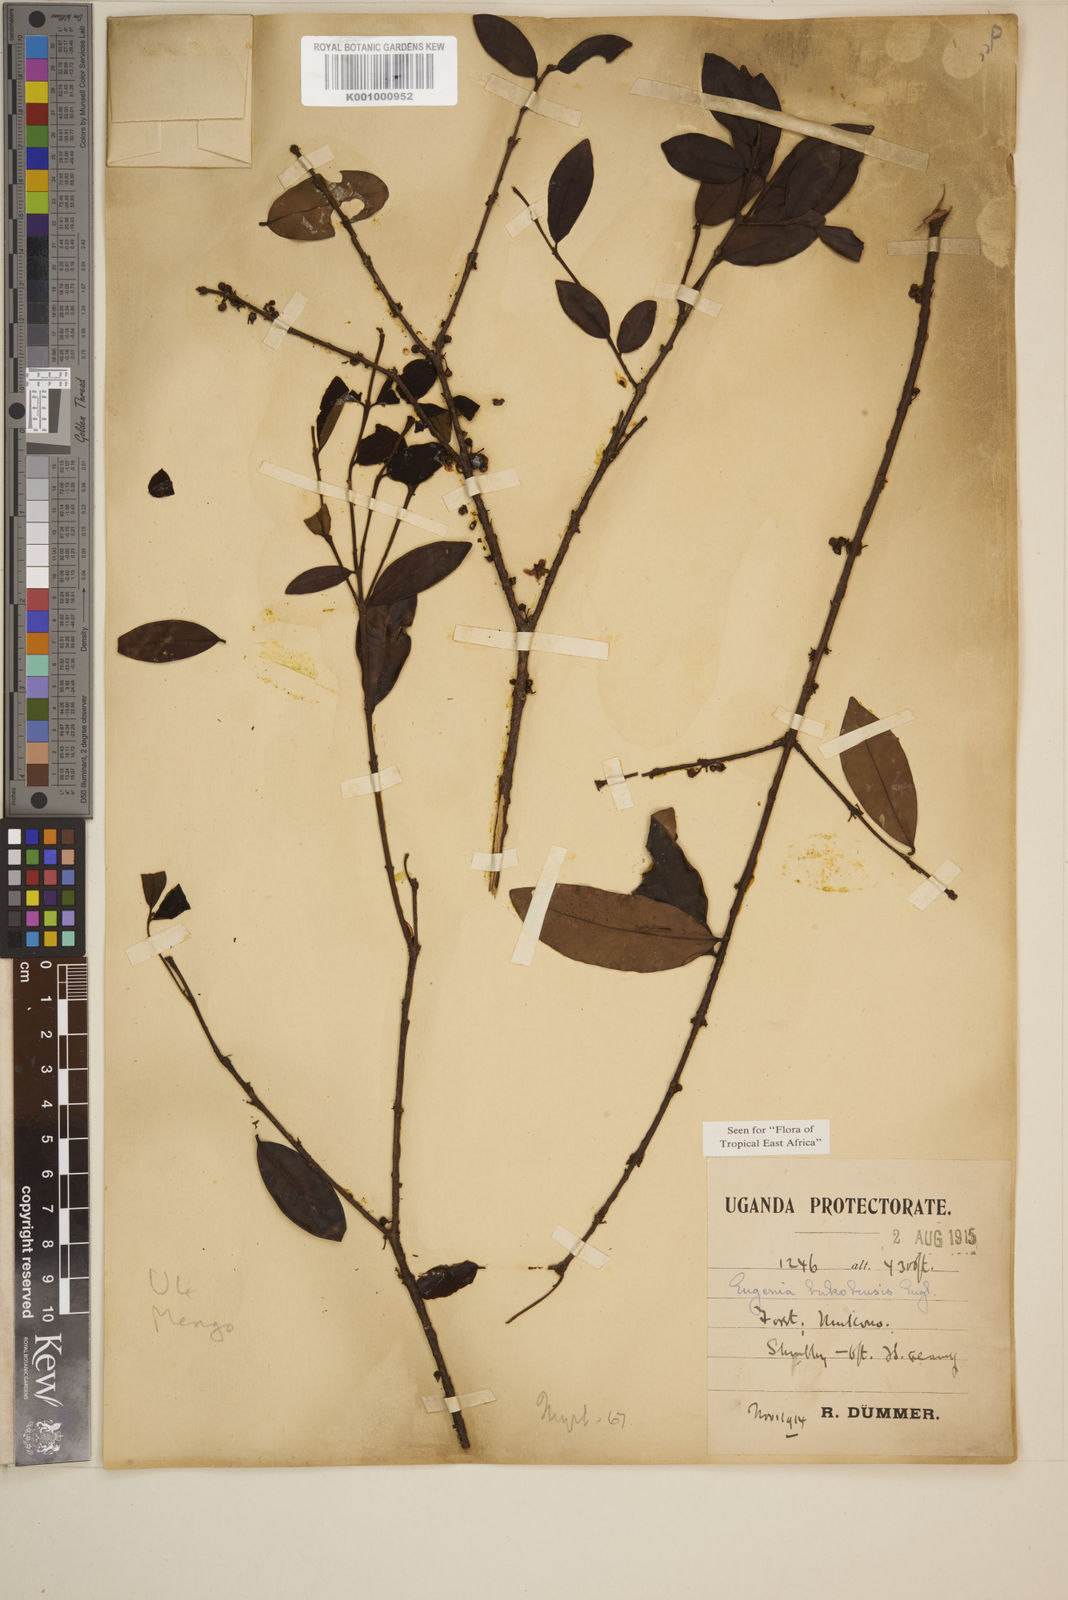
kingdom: Plantae
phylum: Tracheophyta
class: Magnoliopsida
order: Myrtales
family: Myrtaceae
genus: Eugenia
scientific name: Eugenia bukobensis
